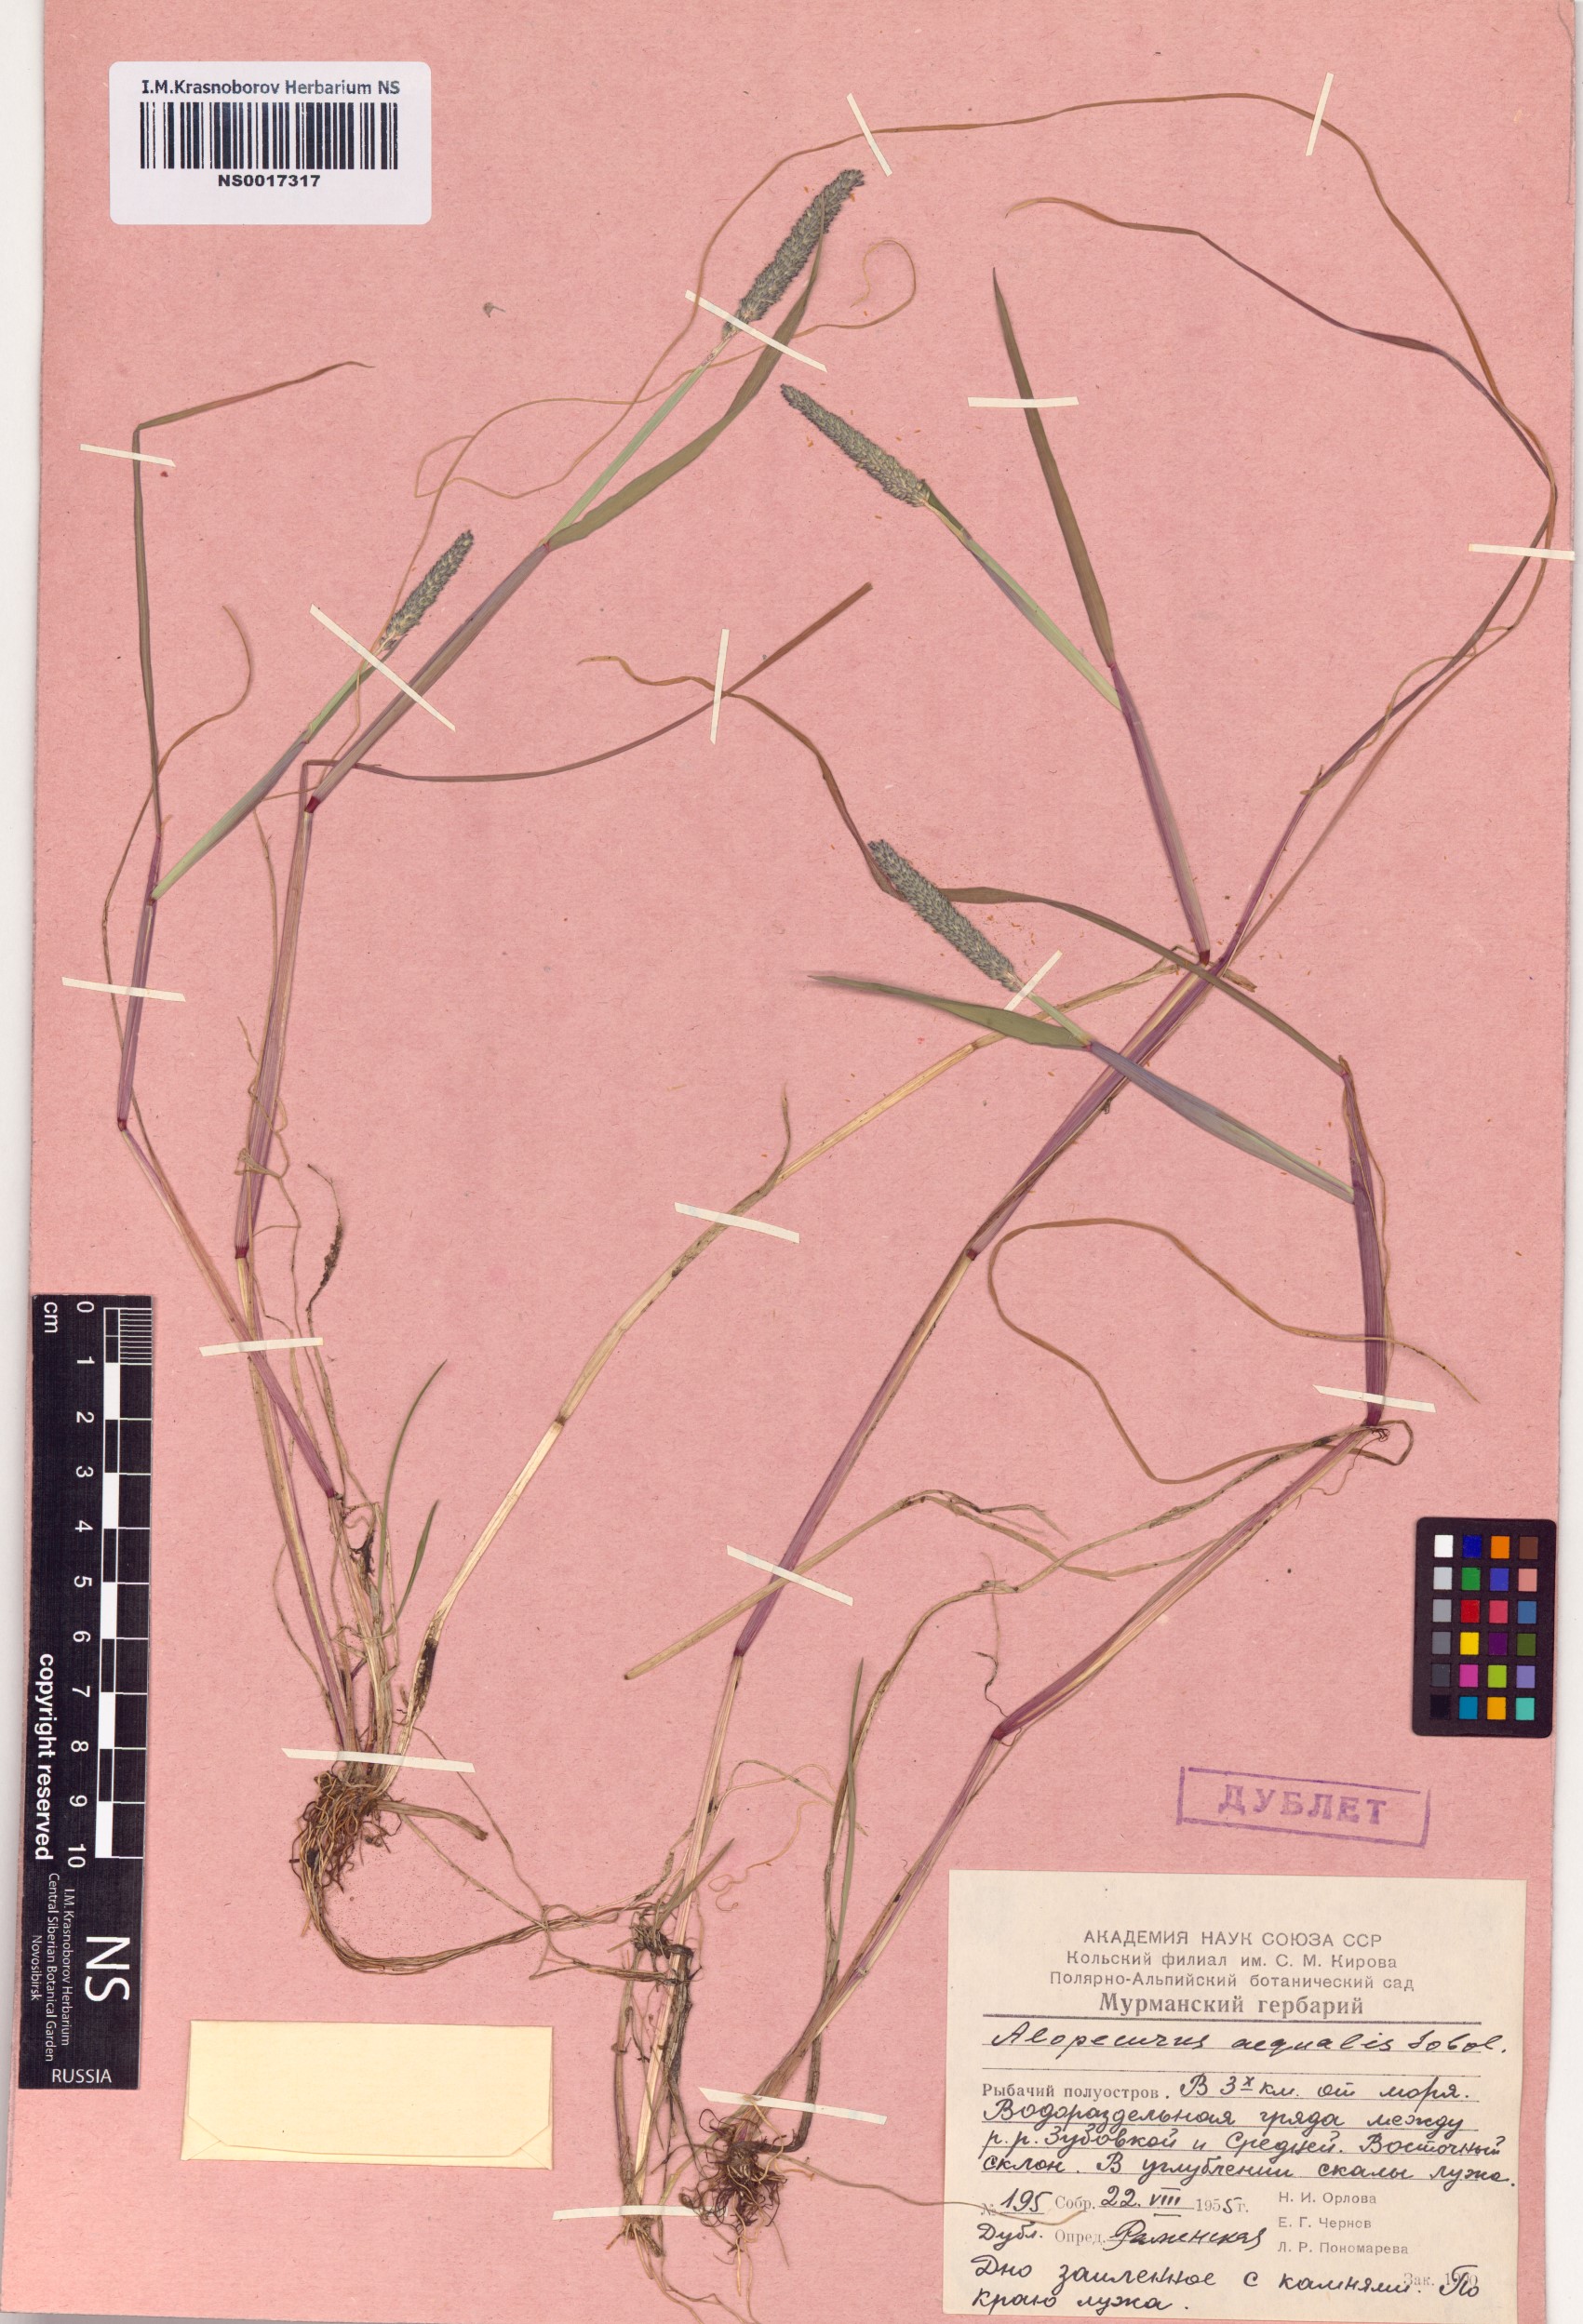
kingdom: Plantae
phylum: Tracheophyta
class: Liliopsida
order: Poales
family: Poaceae
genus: Alopecurus
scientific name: Alopecurus aequalis
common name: Orange foxtail
